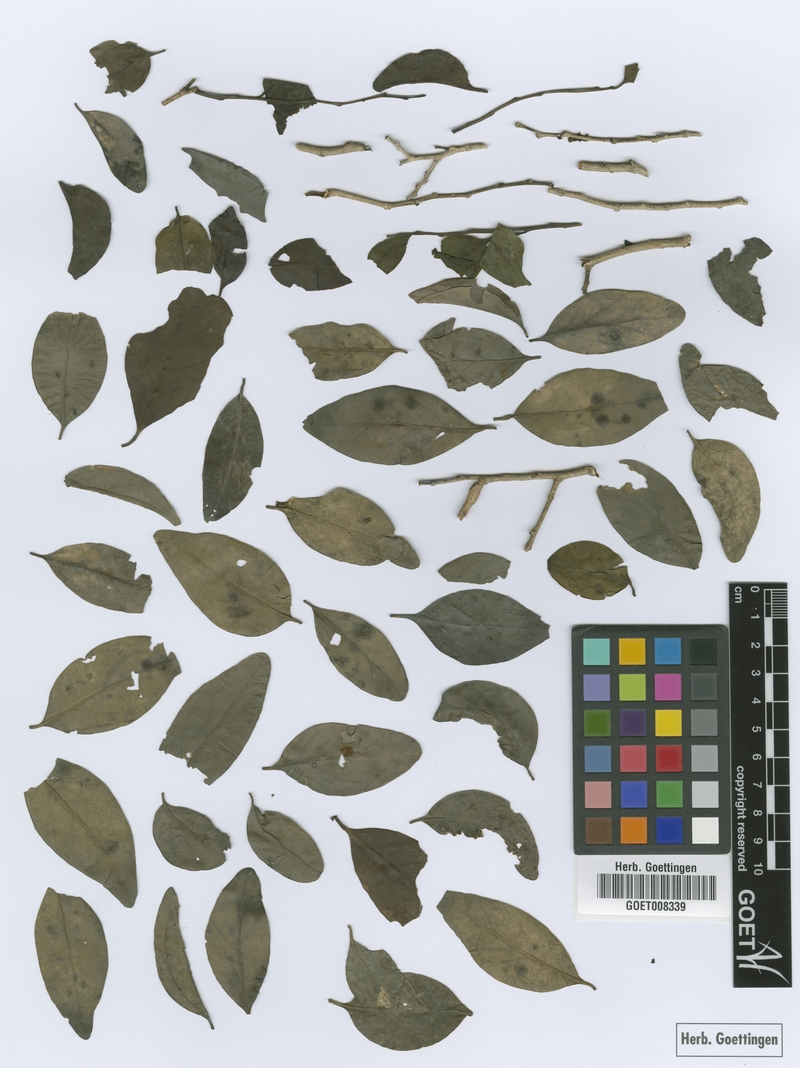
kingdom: Plantae
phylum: Tracheophyta
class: Magnoliopsida
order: Santalales
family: Schoepfiaceae
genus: Schoepfia
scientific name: Schoepfia schreberi
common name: Gulf graytwig
